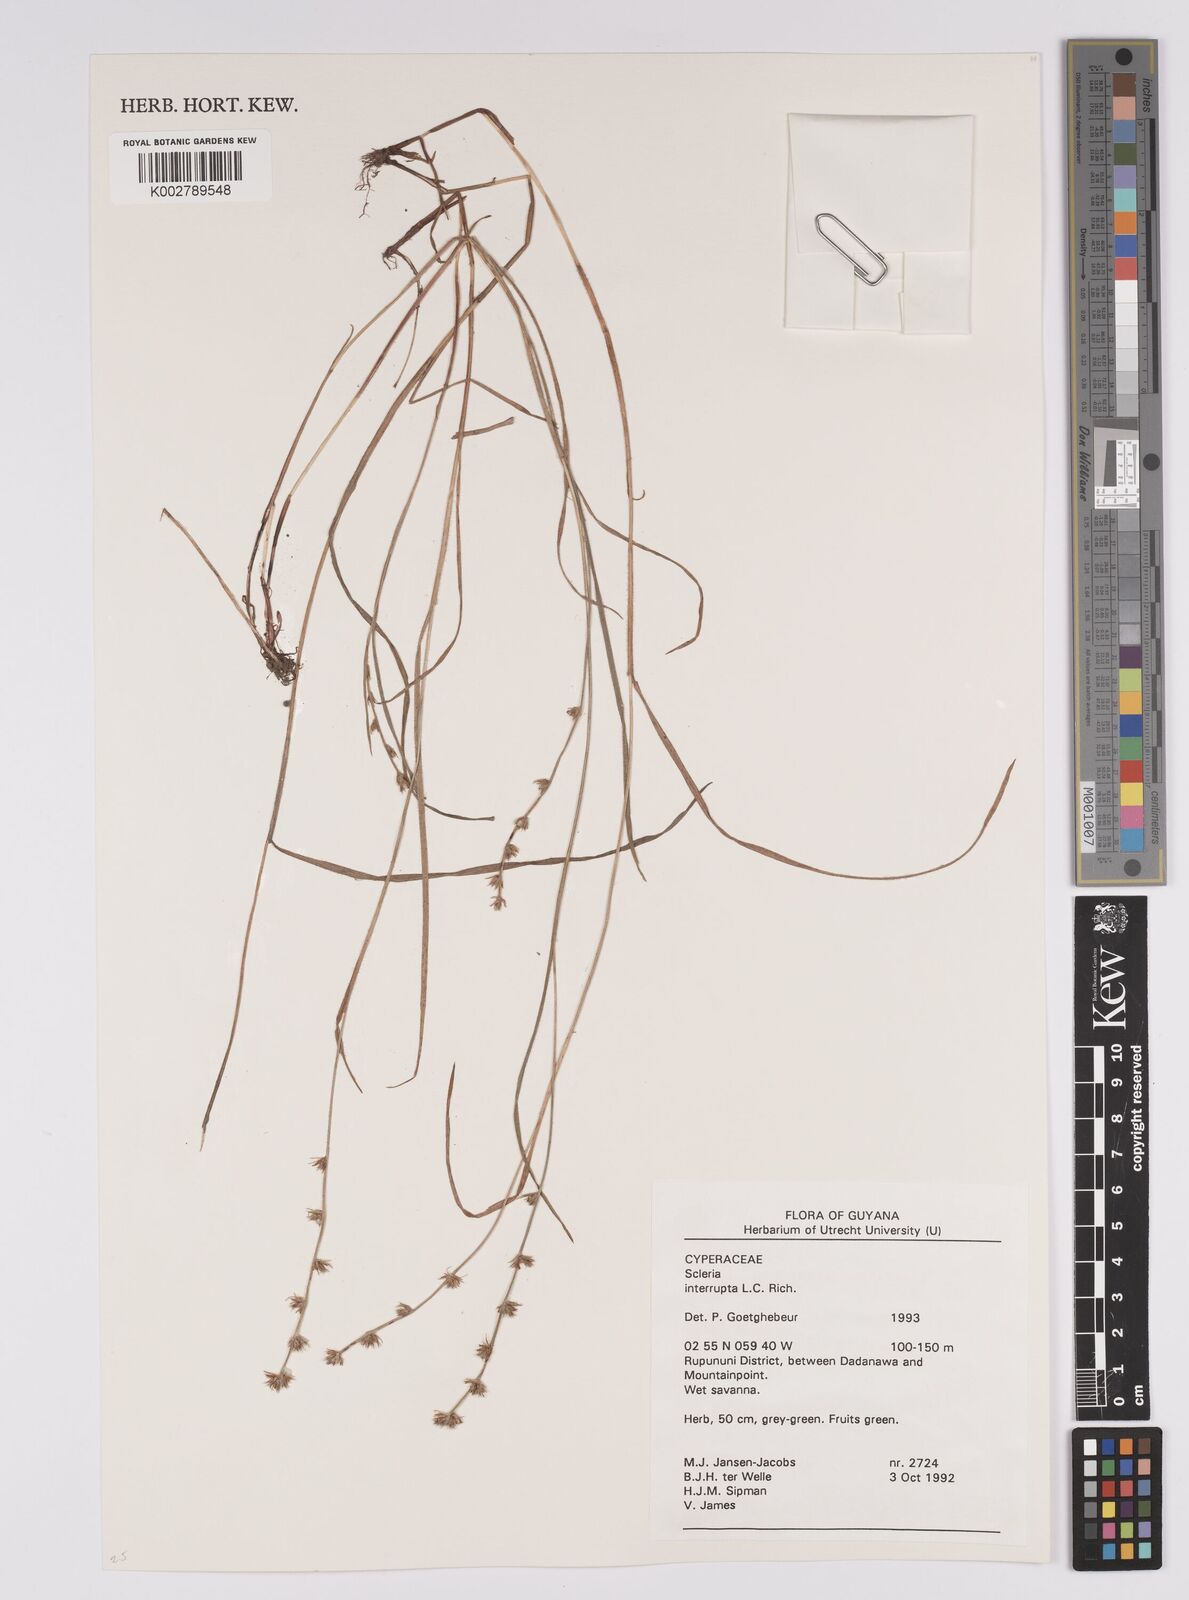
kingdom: Plantae
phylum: Tracheophyta
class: Liliopsida
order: Poales
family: Cyperaceae
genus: Scleria
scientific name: Scleria interrupta
